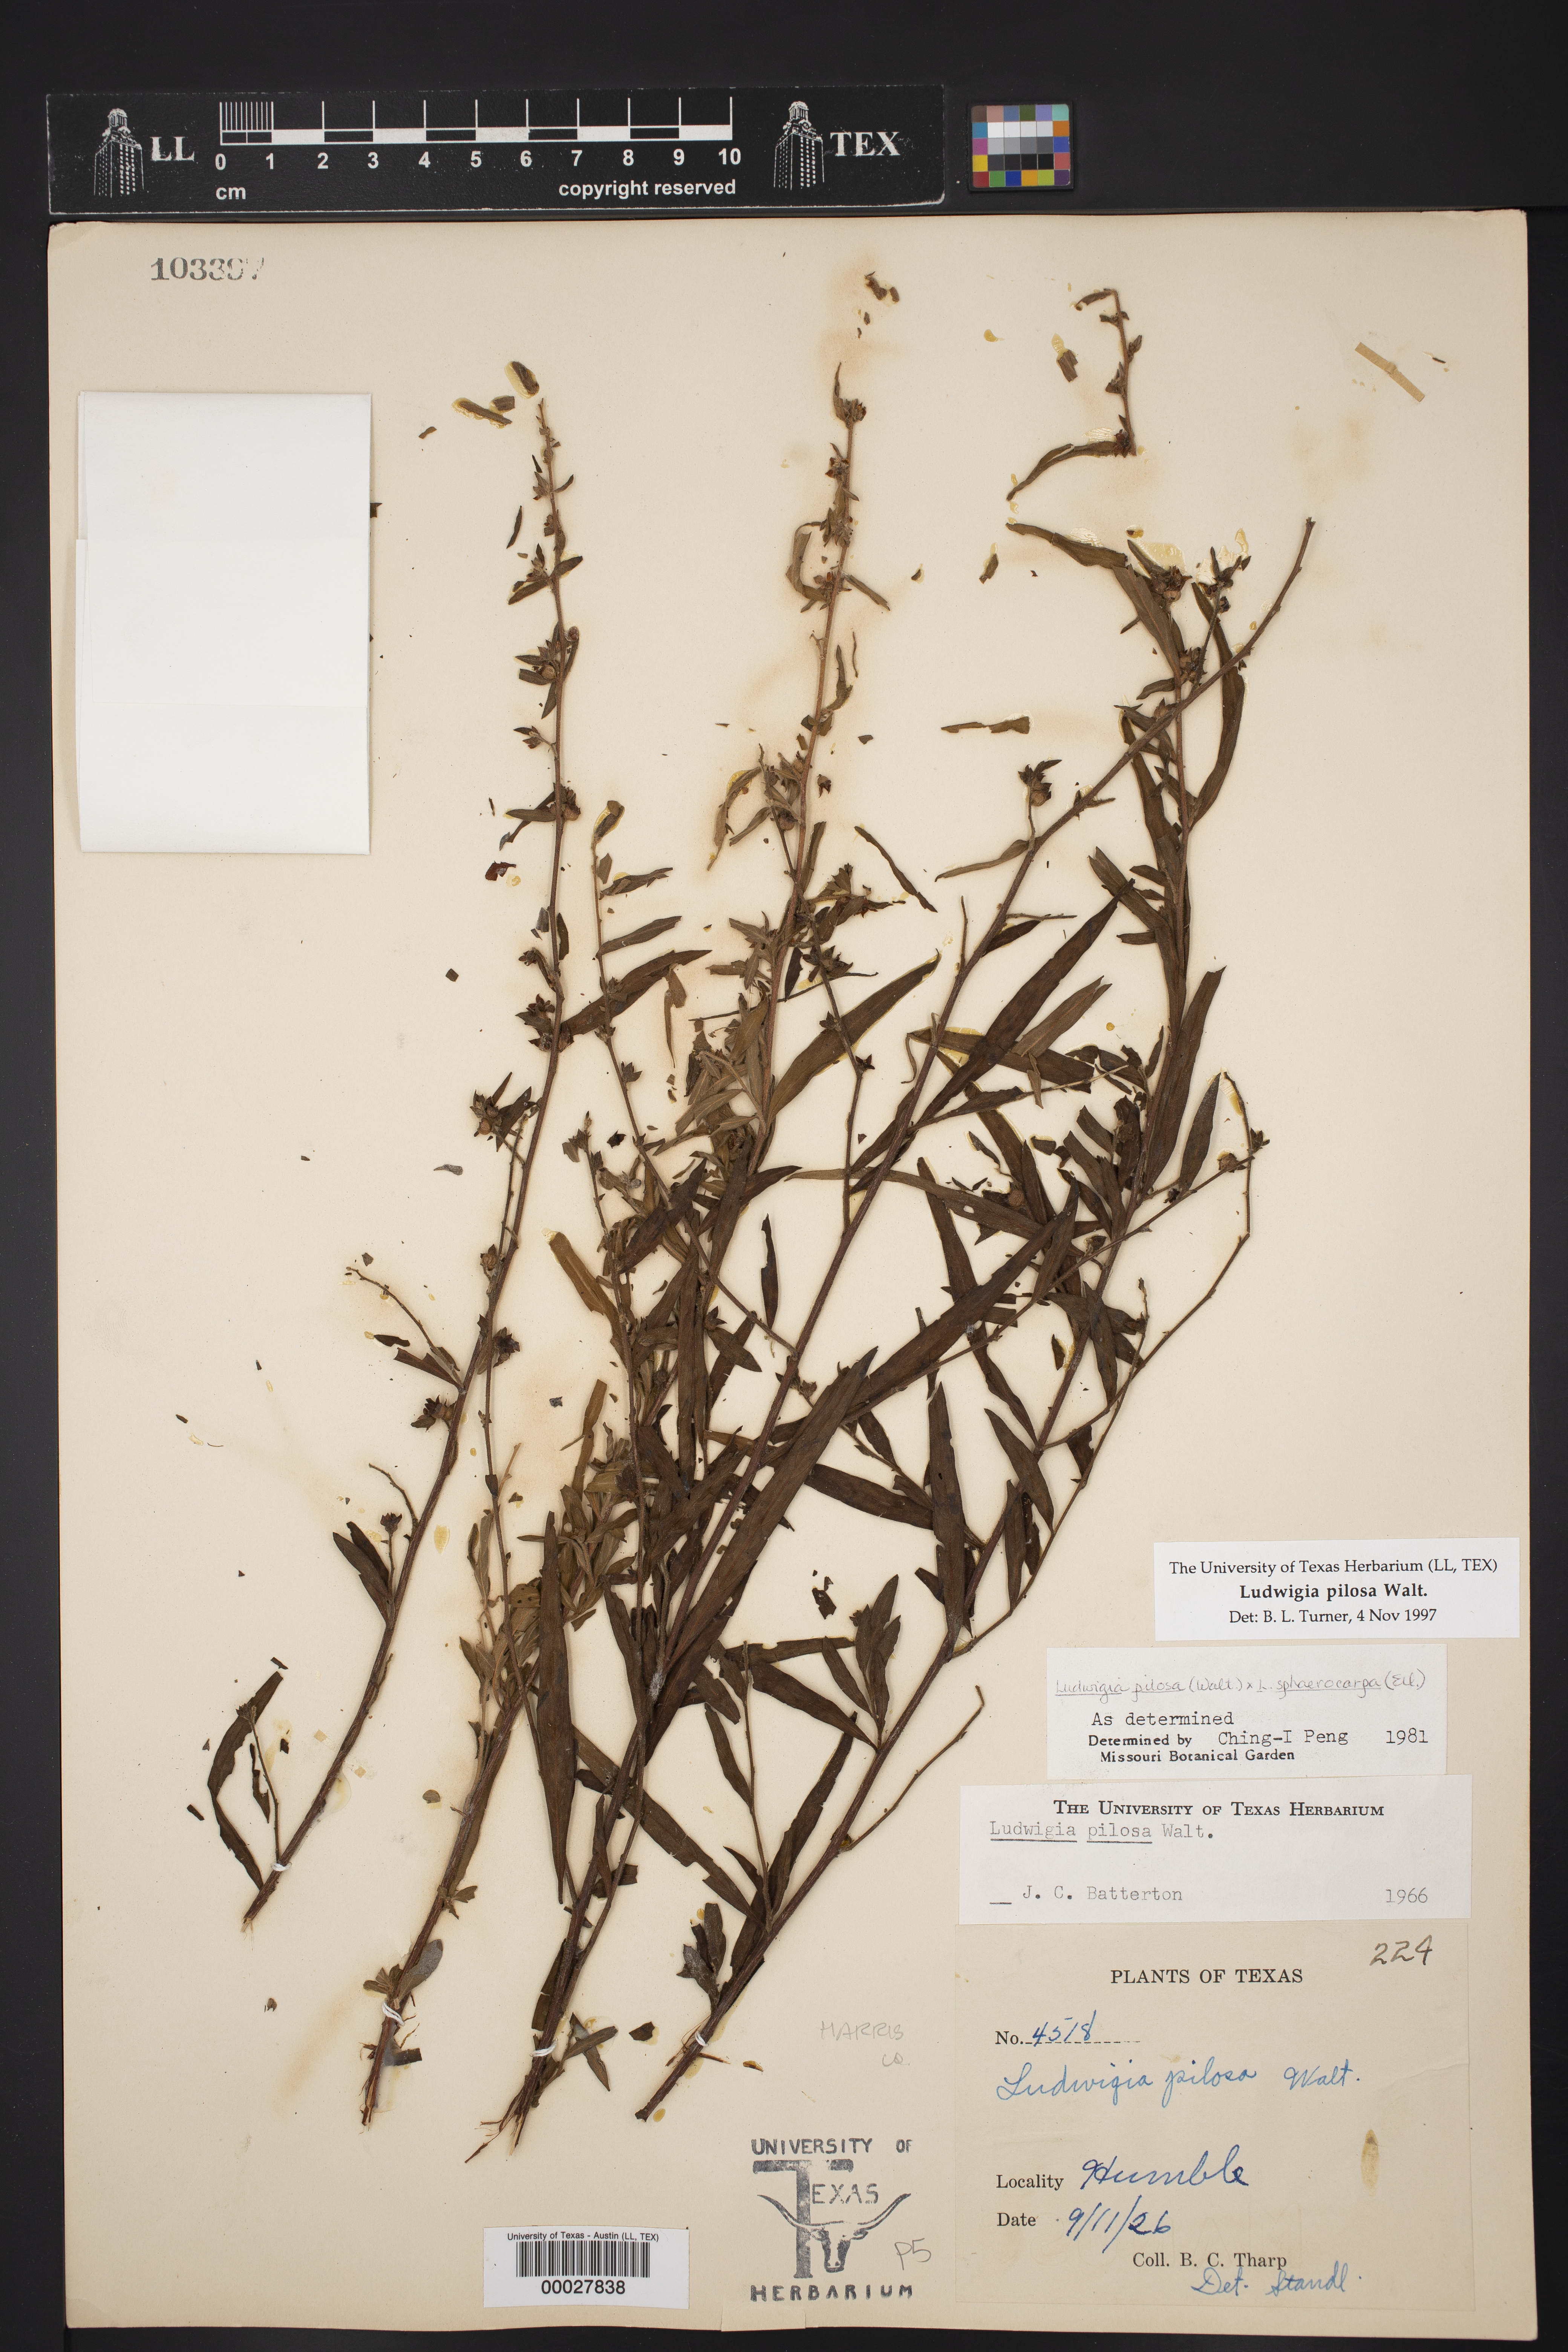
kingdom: Plantae
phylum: Tracheophyta
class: Magnoliopsida
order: Myrtales
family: Onagraceae
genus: Ludwigia
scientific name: Ludwigia pilosa
